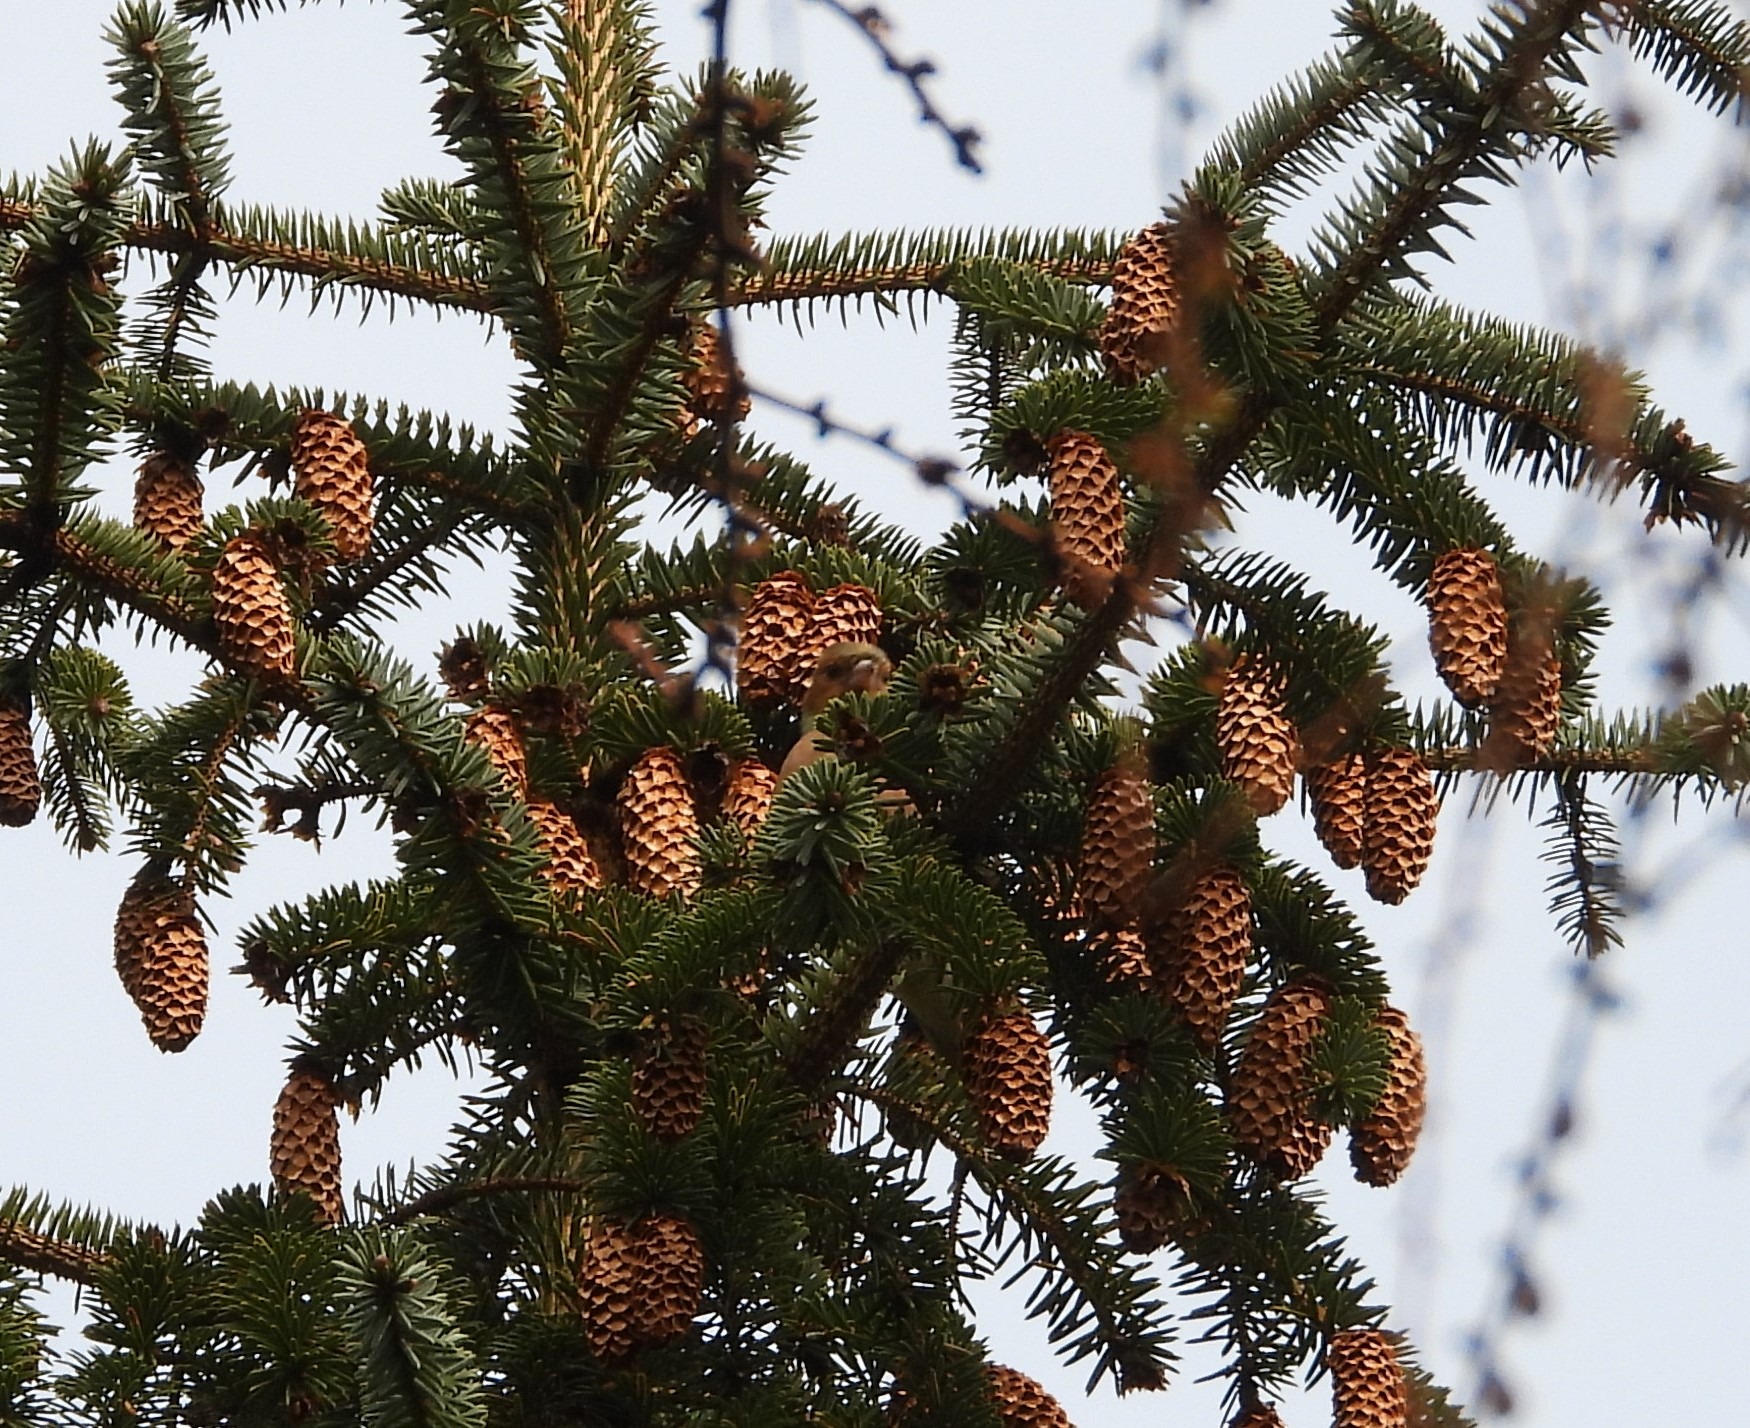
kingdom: Animalia
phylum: Chordata
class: Aves
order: Passeriformes
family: Fringillidae
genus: Fringilla
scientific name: Fringilla coelebs
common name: Bogfinke
